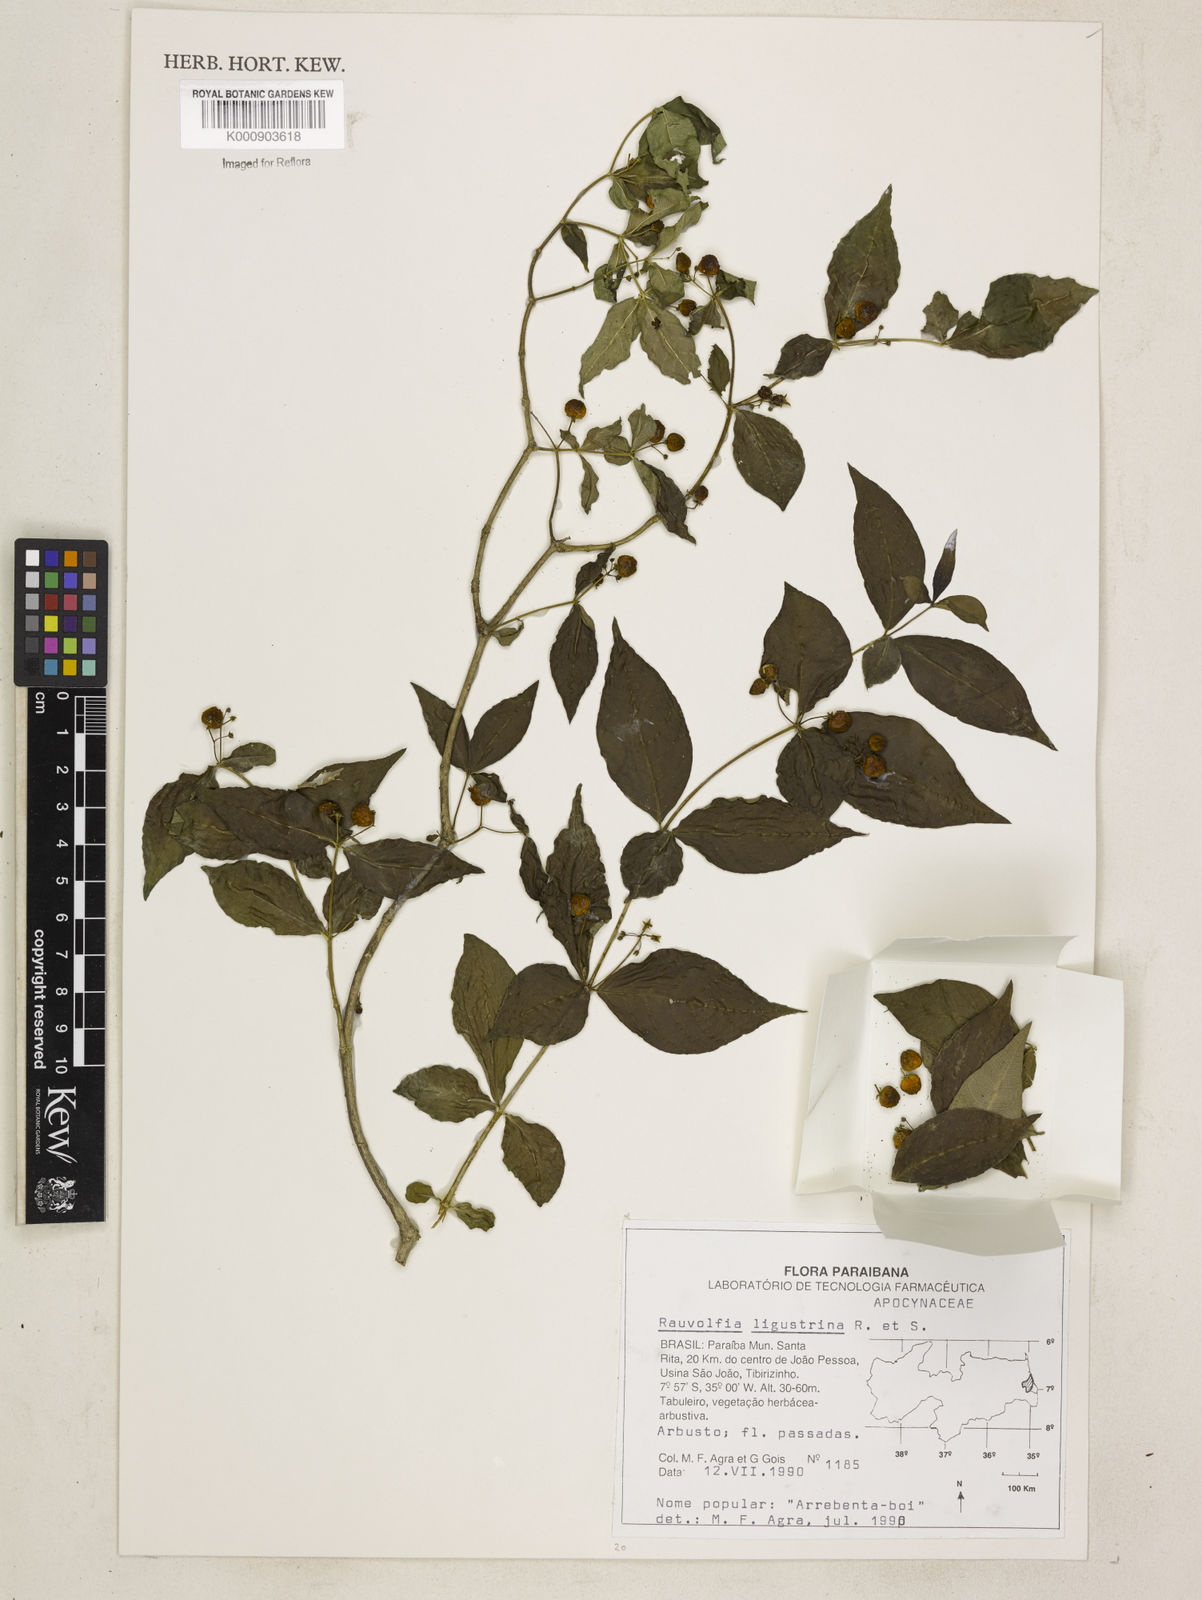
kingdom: Plantae
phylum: Tracheophyta
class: Magnoliopsida
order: Gentianales
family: Apocynaceae
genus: Rauvolfia
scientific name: Rauvolfia ligustrina
